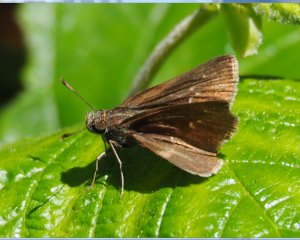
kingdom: Animalia
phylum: Arthropoda
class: Insecta
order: Lepidoptera
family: Hesperiidae
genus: Euphyes
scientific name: Euphyes vestris
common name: Dun Skipper
